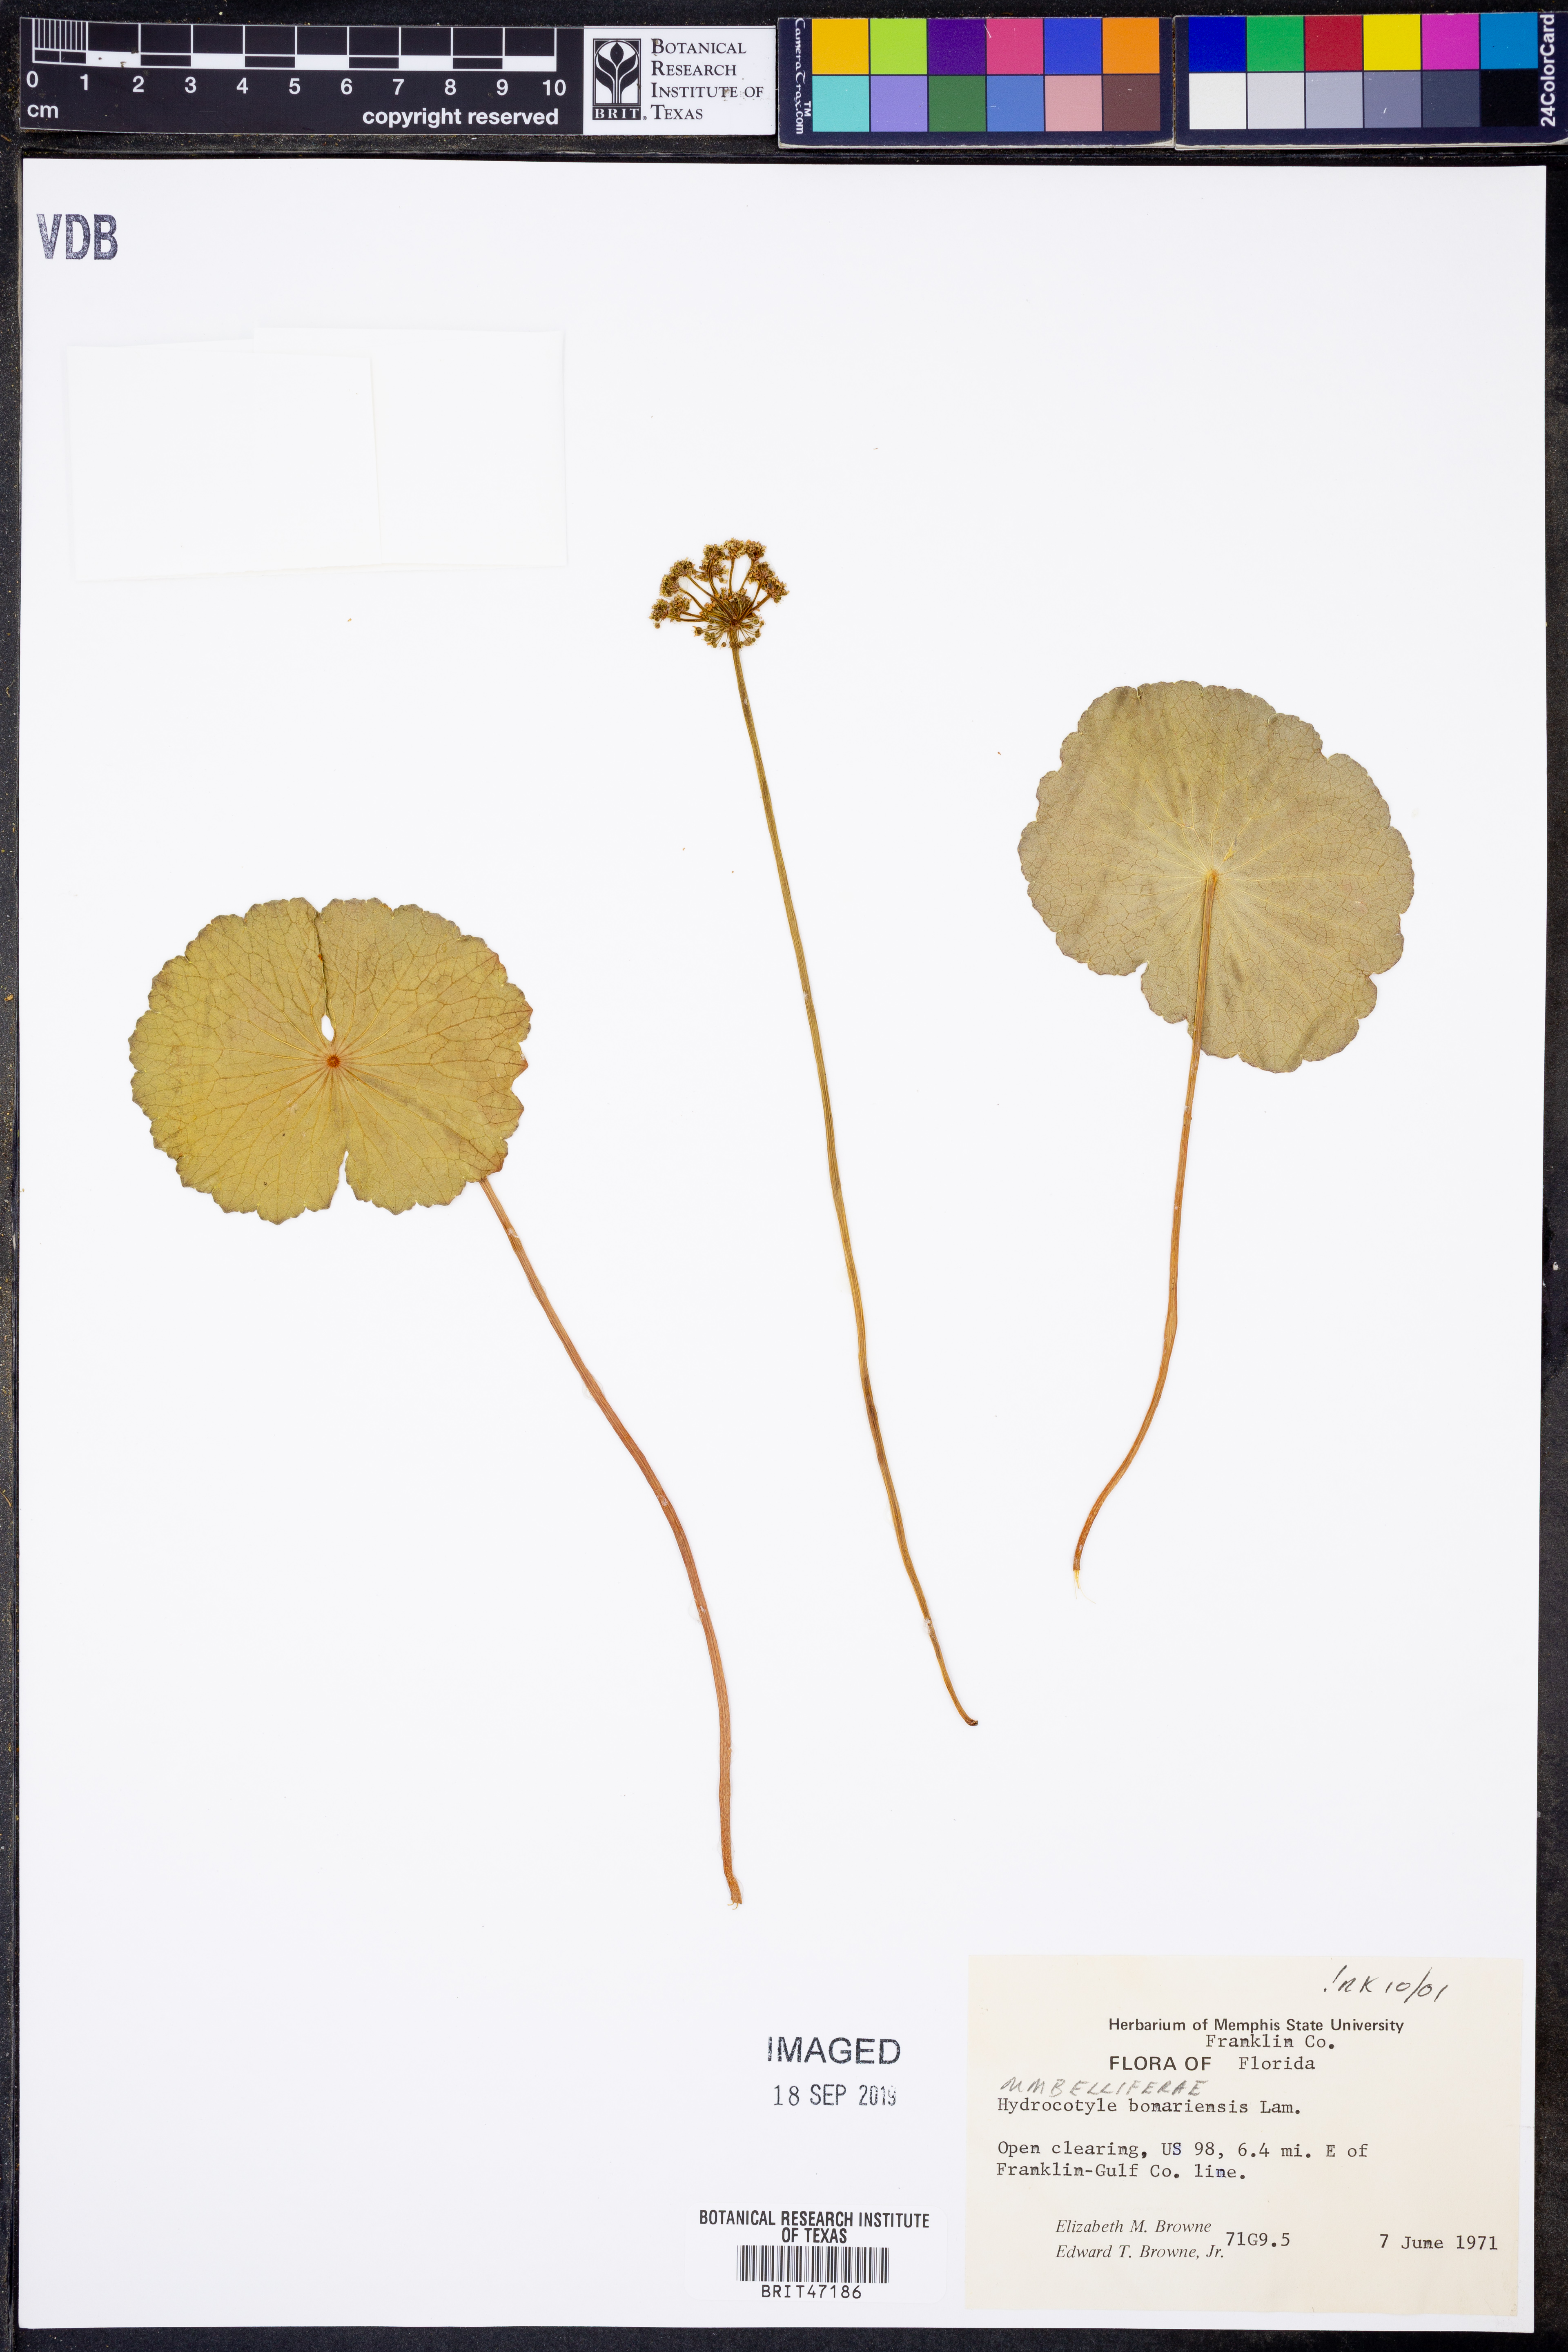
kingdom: Plantae
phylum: Tracheophyta
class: Magnoliopsida
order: Apiales
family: Araliaceae
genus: Hydrocotyle
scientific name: Hydrocotyle bonariensis
